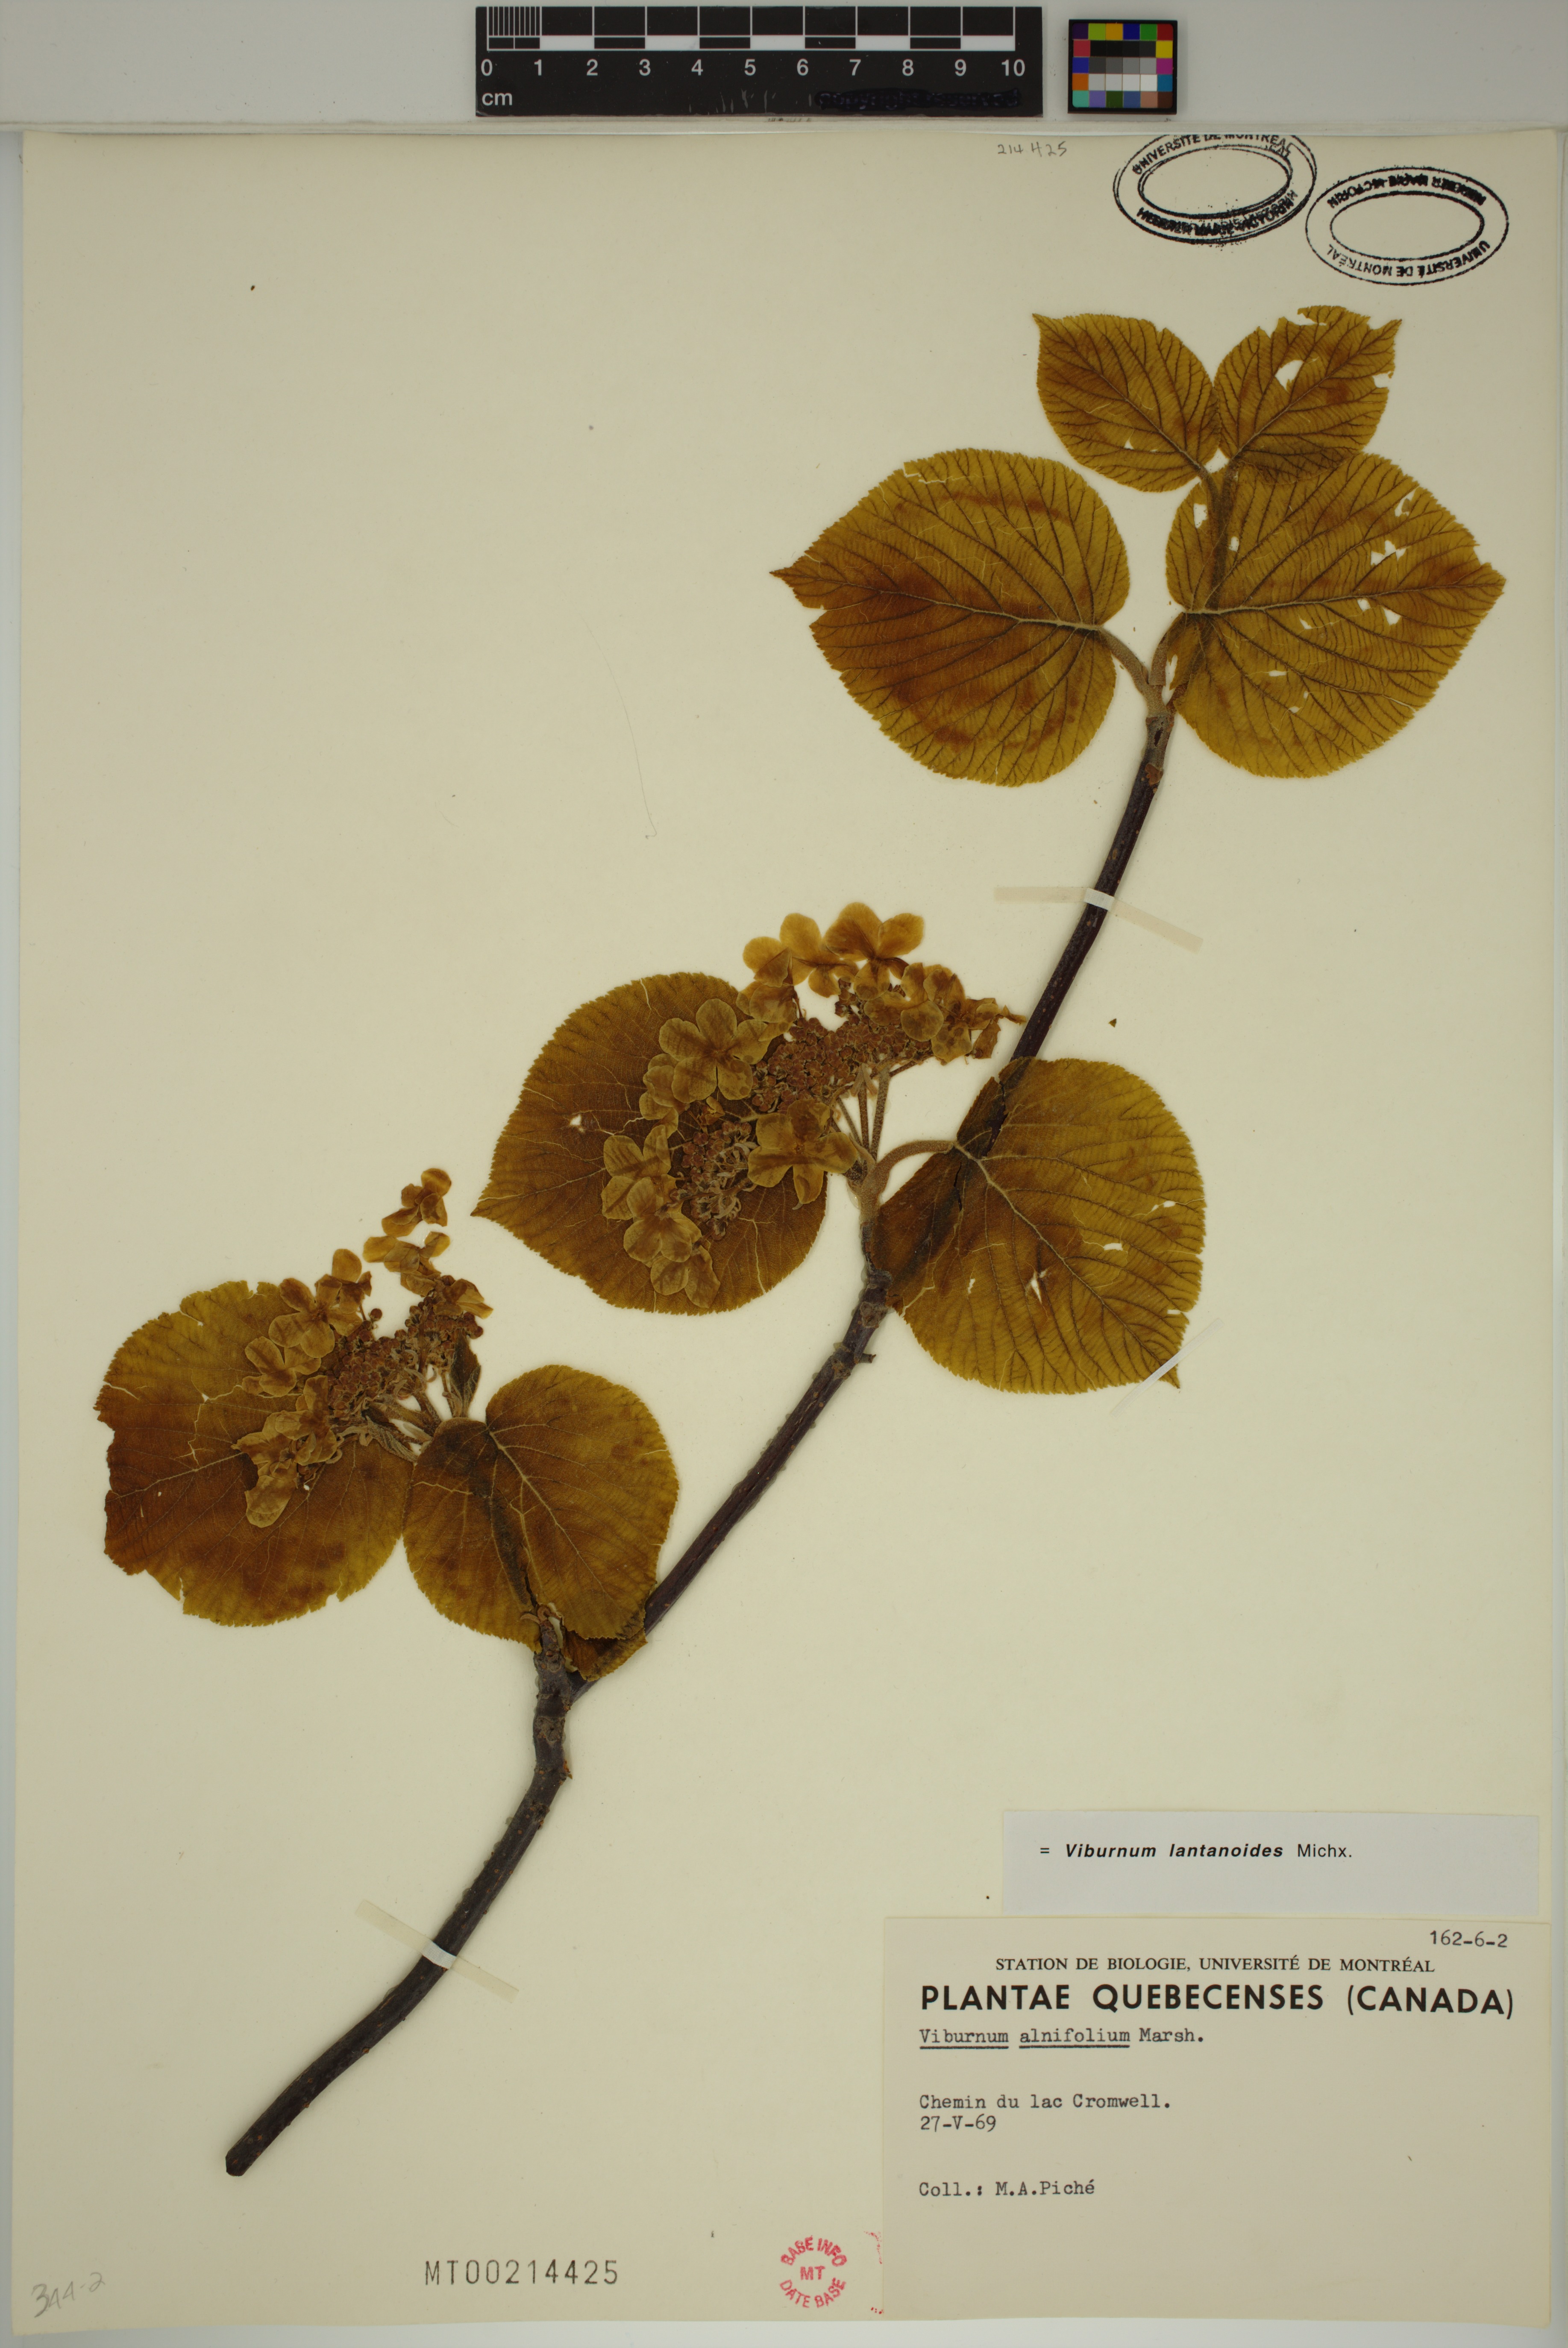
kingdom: Plantae
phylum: Tracheophyta
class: Magnoliopsida
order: Dipsacales
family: Viburnaceae
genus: Viburnum
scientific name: Viburnum lantanoides
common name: Hobblebush
